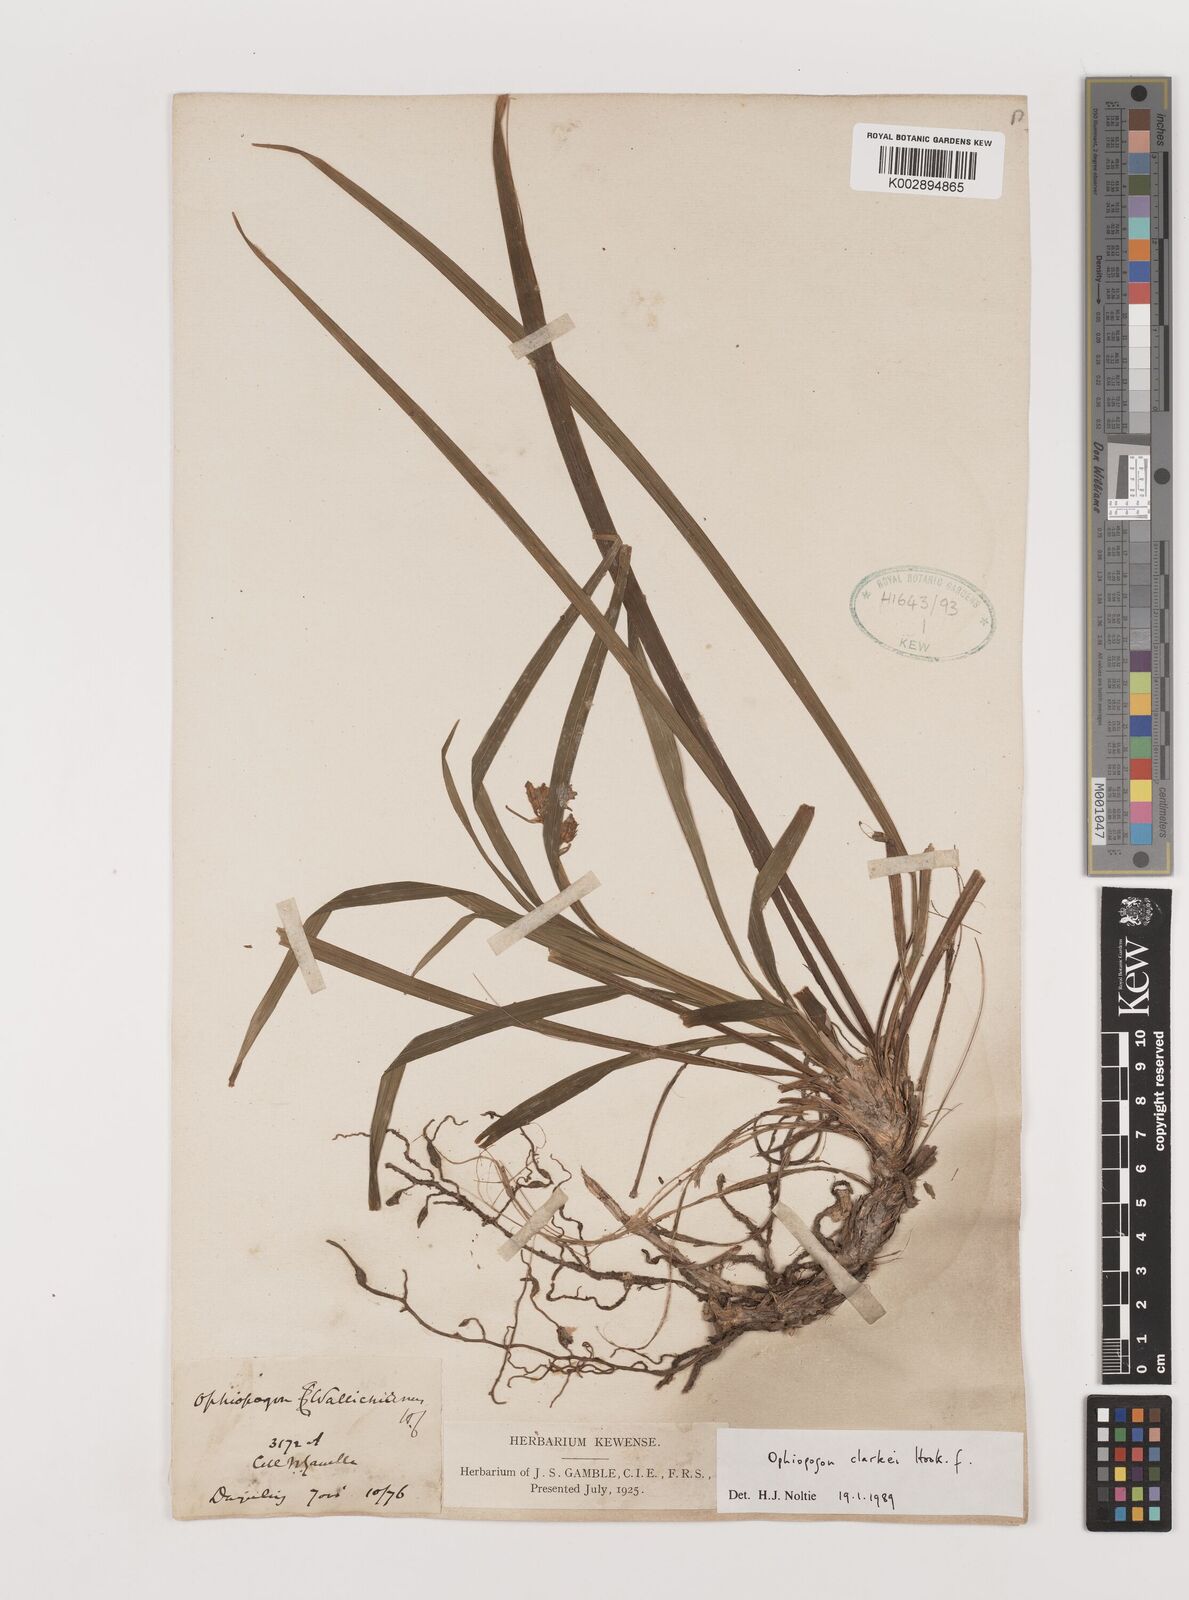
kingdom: Plantae
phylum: Tracheophyta
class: Liliopsida
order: Asparagales
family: Asparagaceae
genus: Ophiopogon
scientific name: Ophiopogon clarkei
